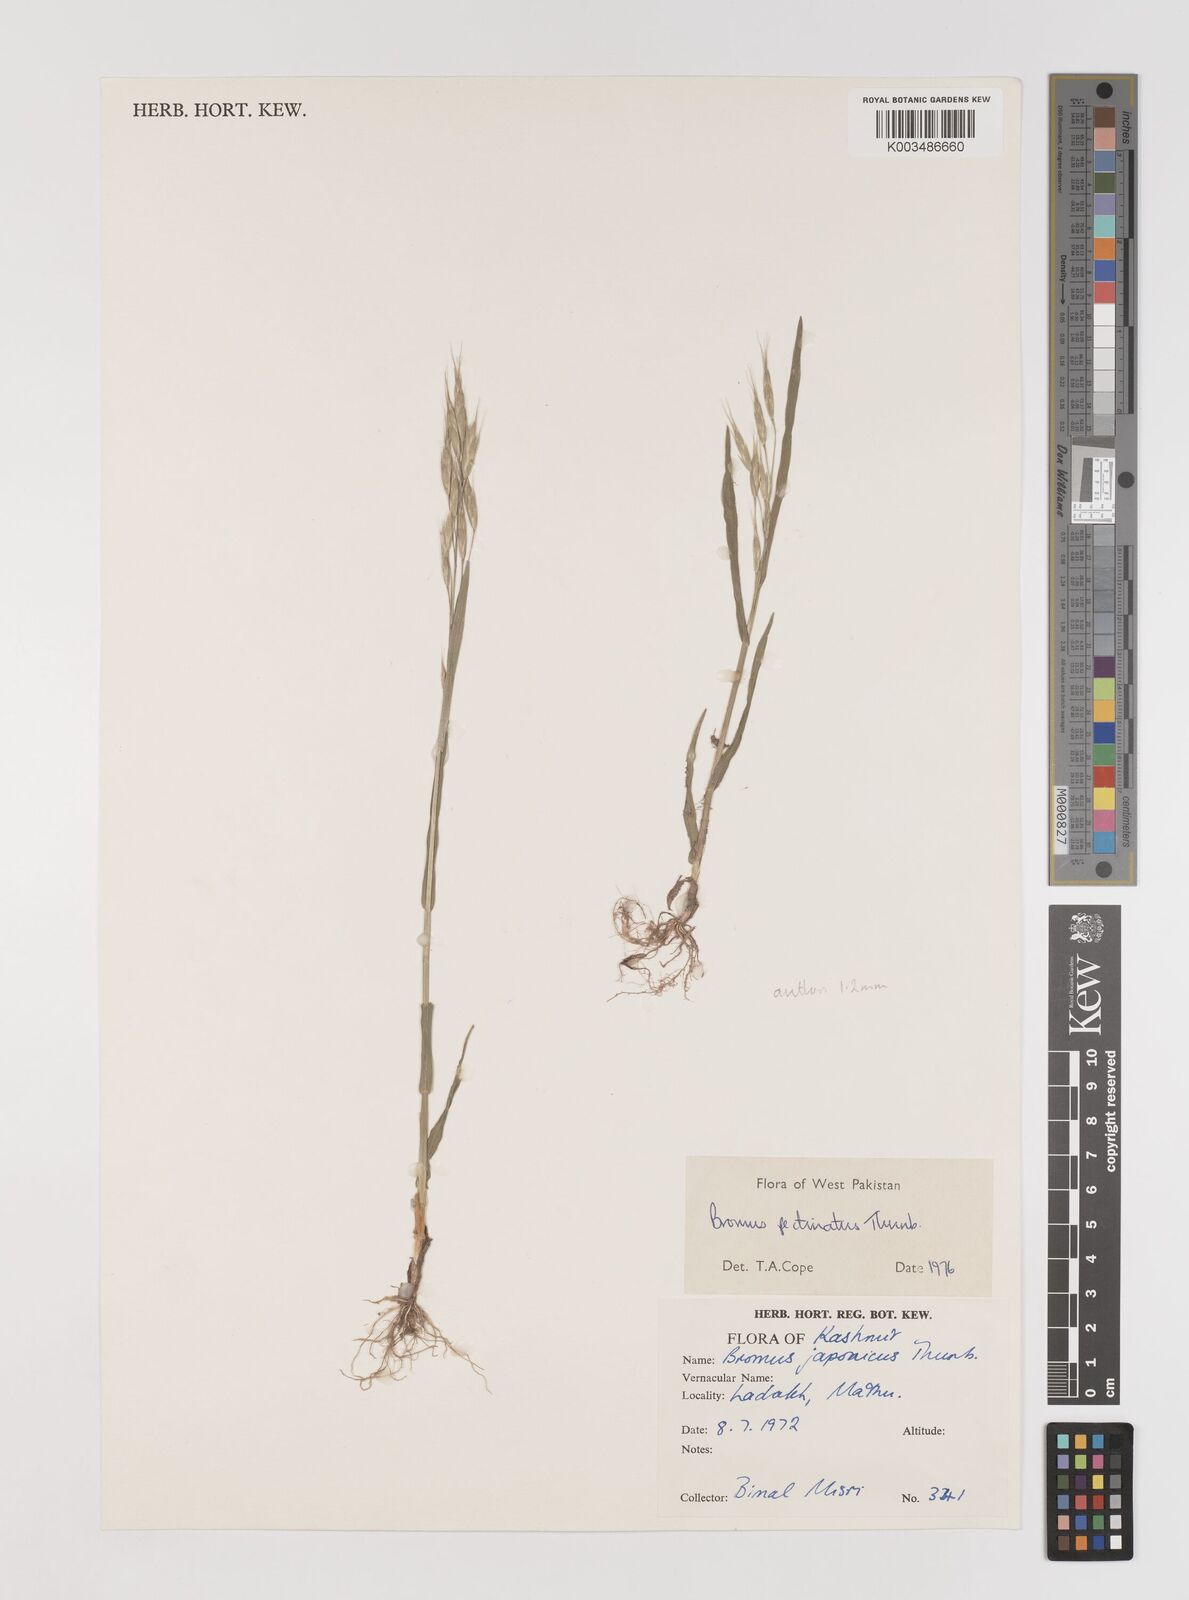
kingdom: Plantae
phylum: Tracheophyta
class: Liliopsida
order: Poales
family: Poaceae
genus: Bromus
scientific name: Bromus pectinatus
